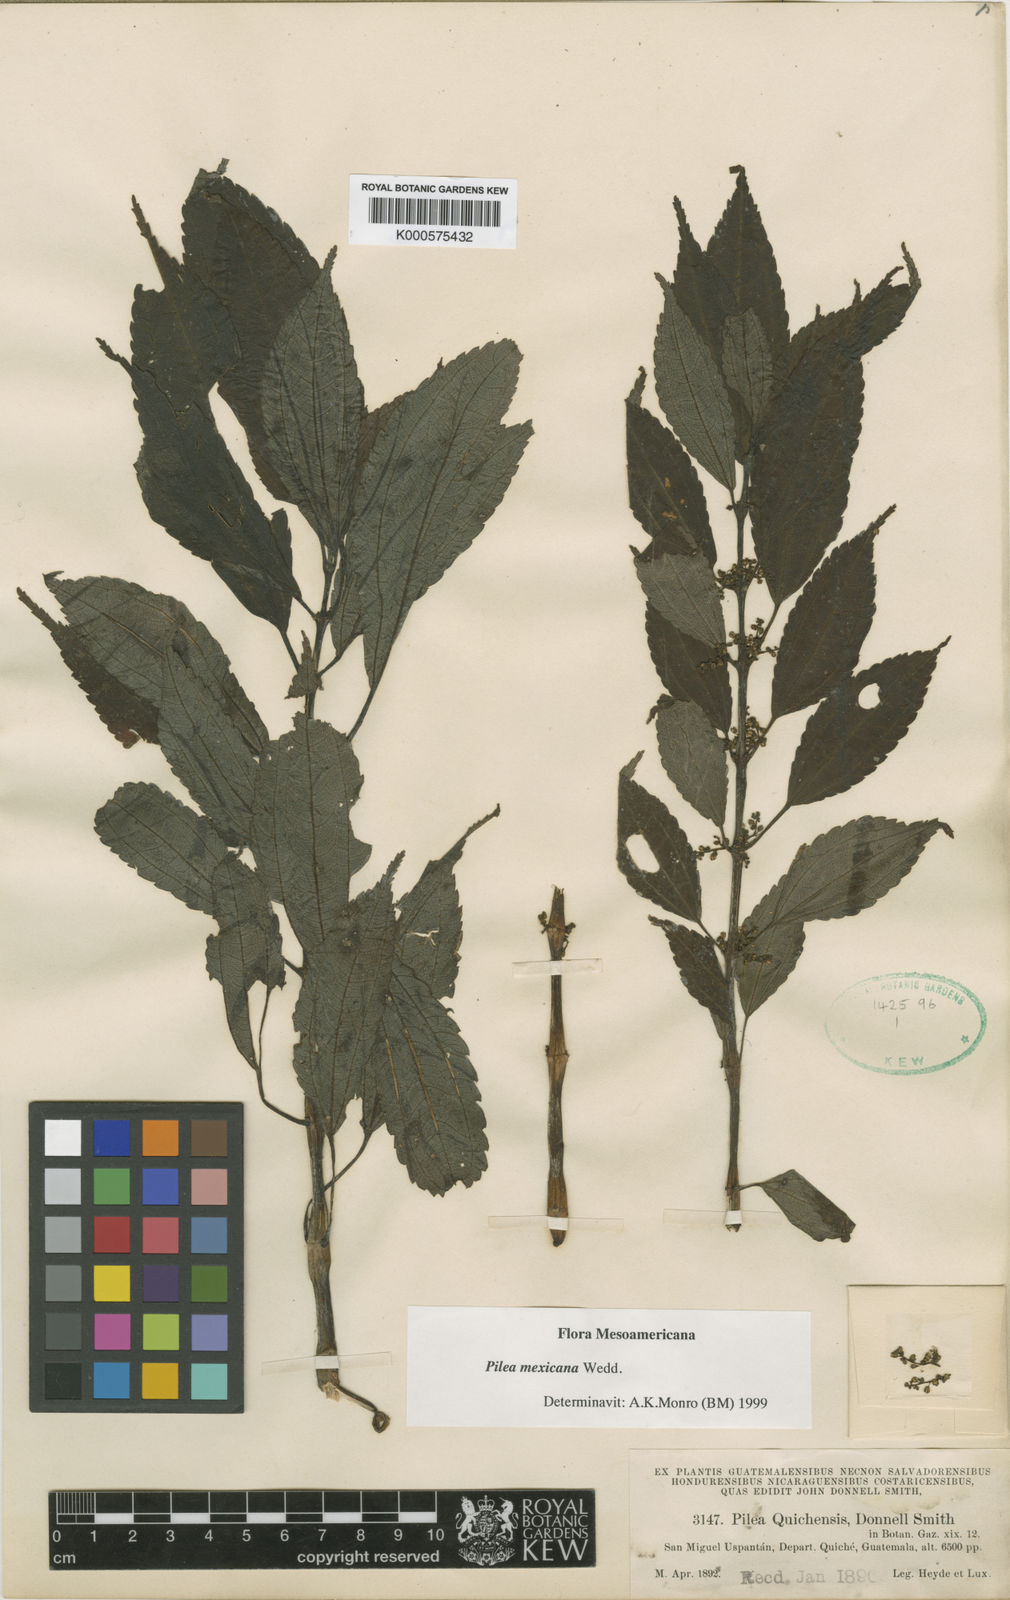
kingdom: Plantae
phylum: Tracheophyta
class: Magnoliopsida
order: Rosales
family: Urticaceae
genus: Pilea
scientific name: Pilea mexicana
